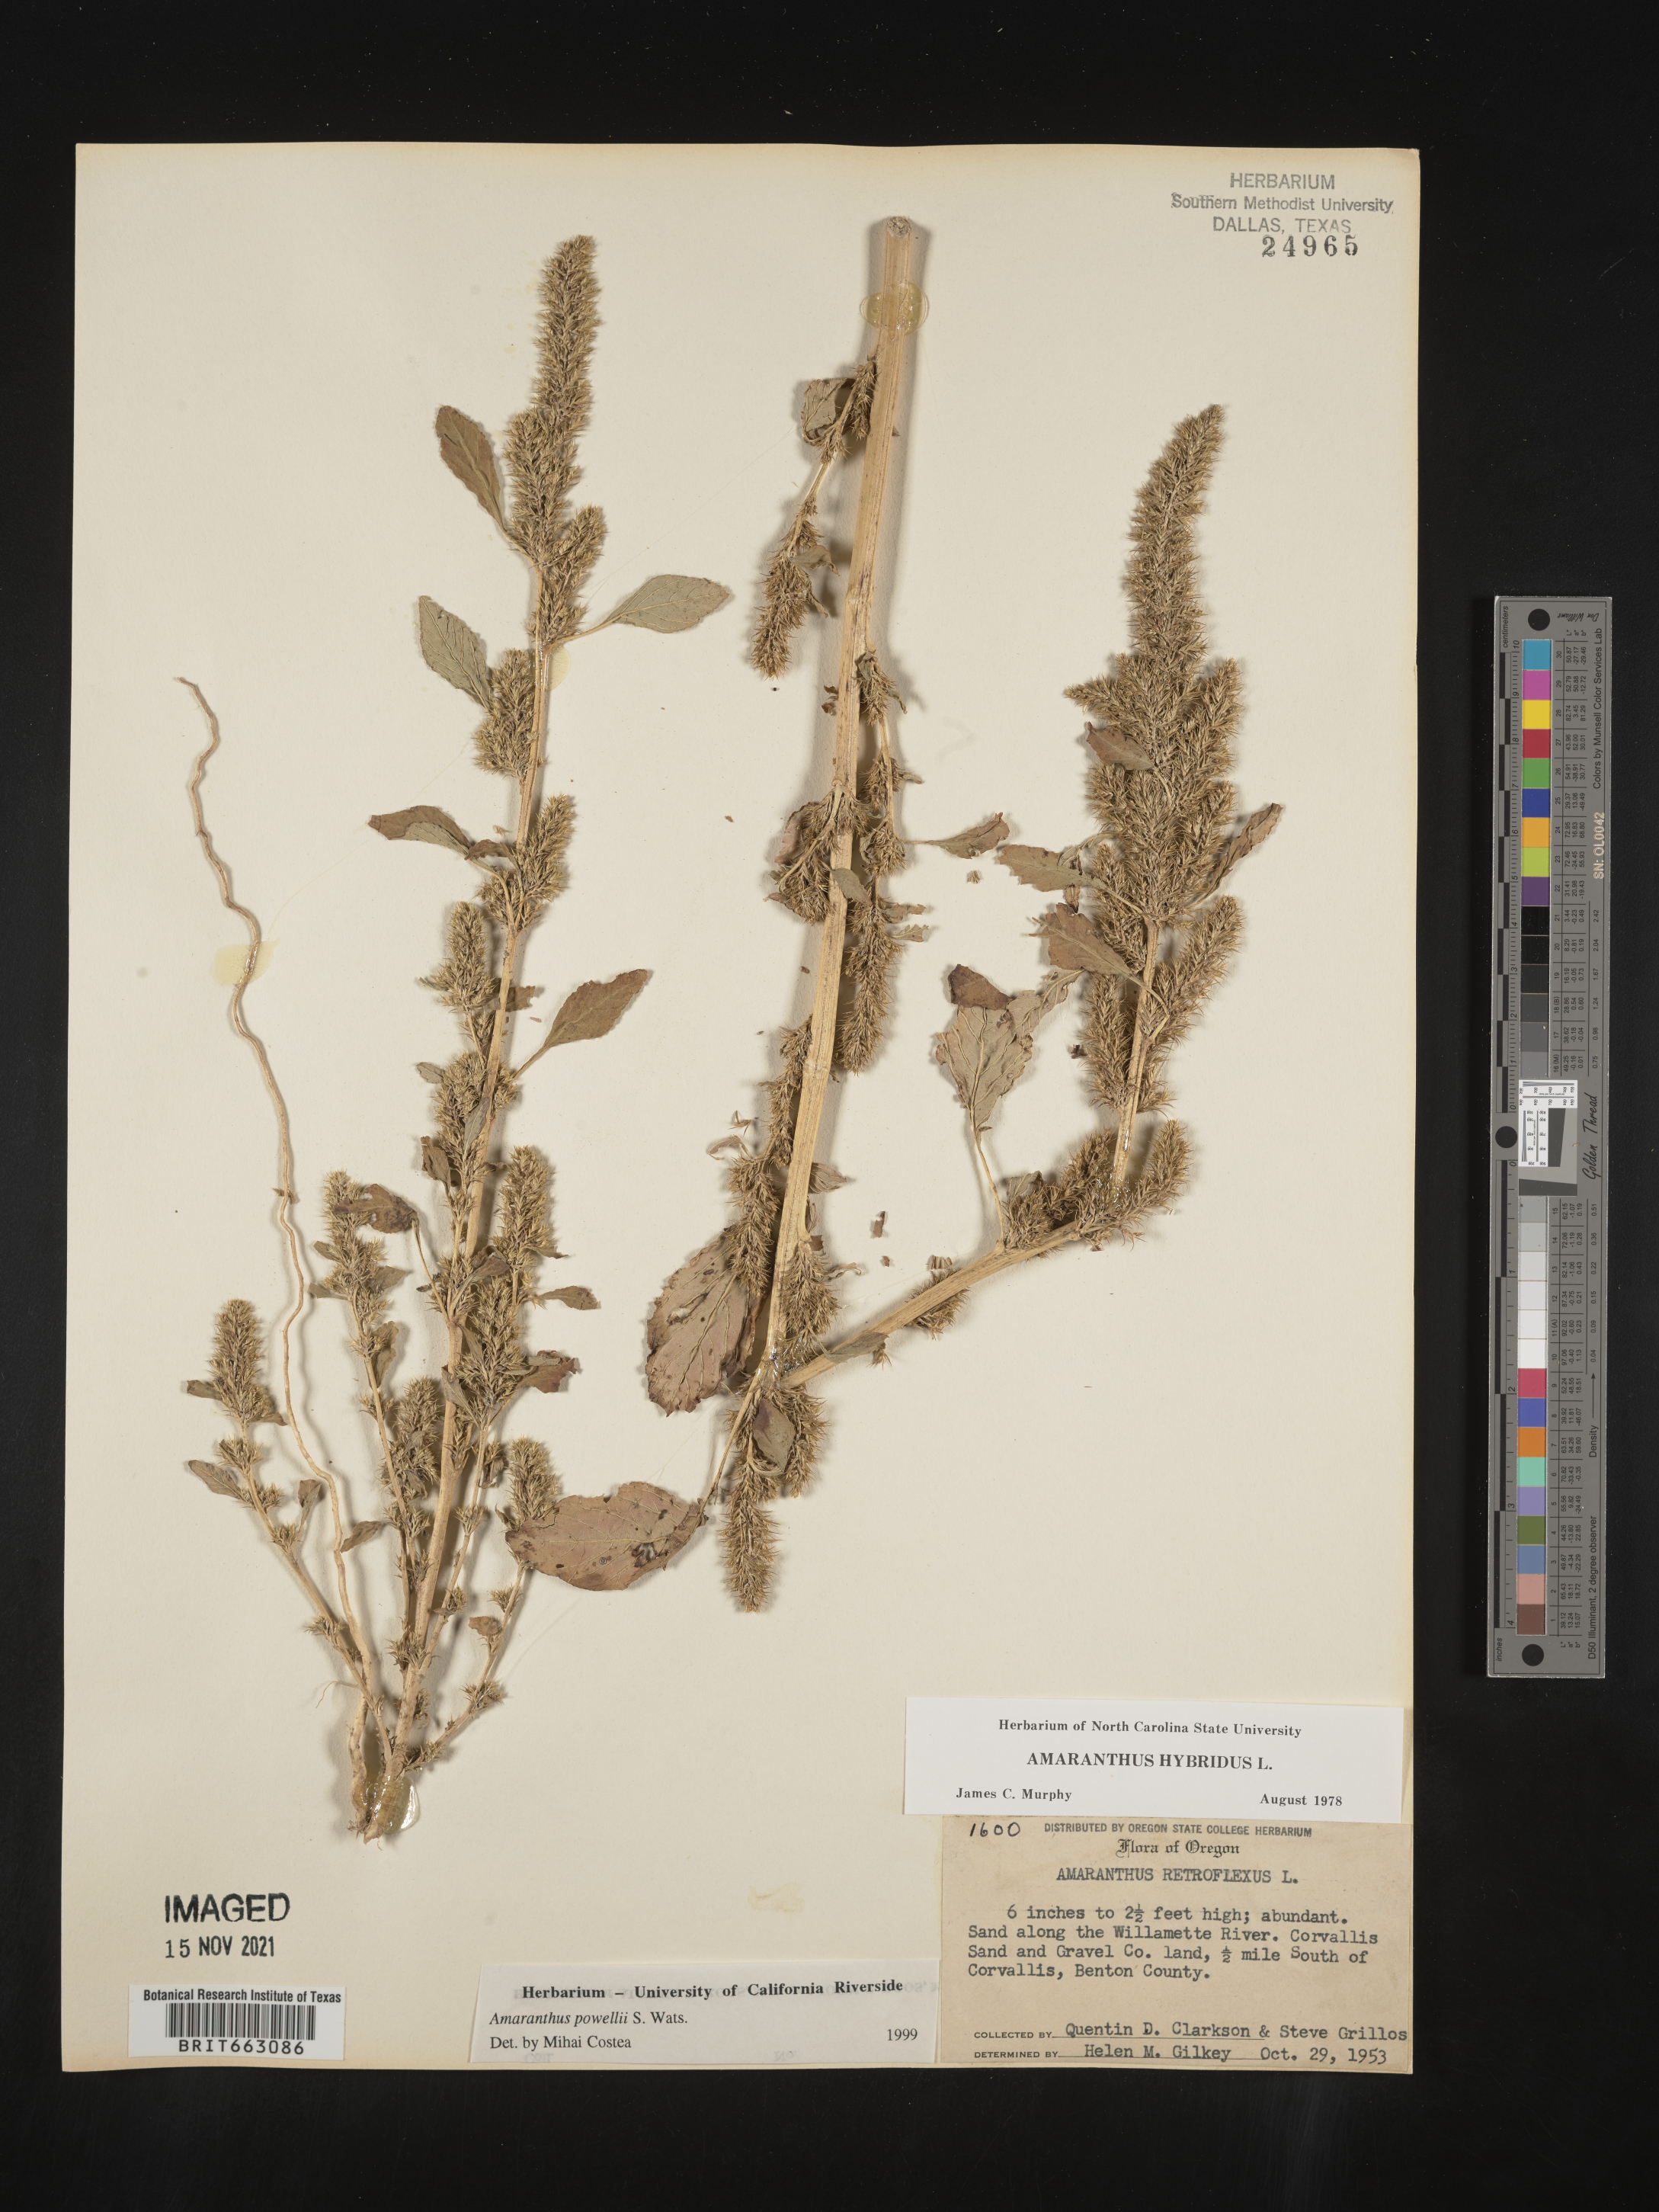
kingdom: Plantae
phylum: Tracheophyta
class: Magnoliopsida
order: Caryophyllales
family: Amaranthaceae
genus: Amaranthus
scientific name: Amaranthus powellii
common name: Powell's amaranth
